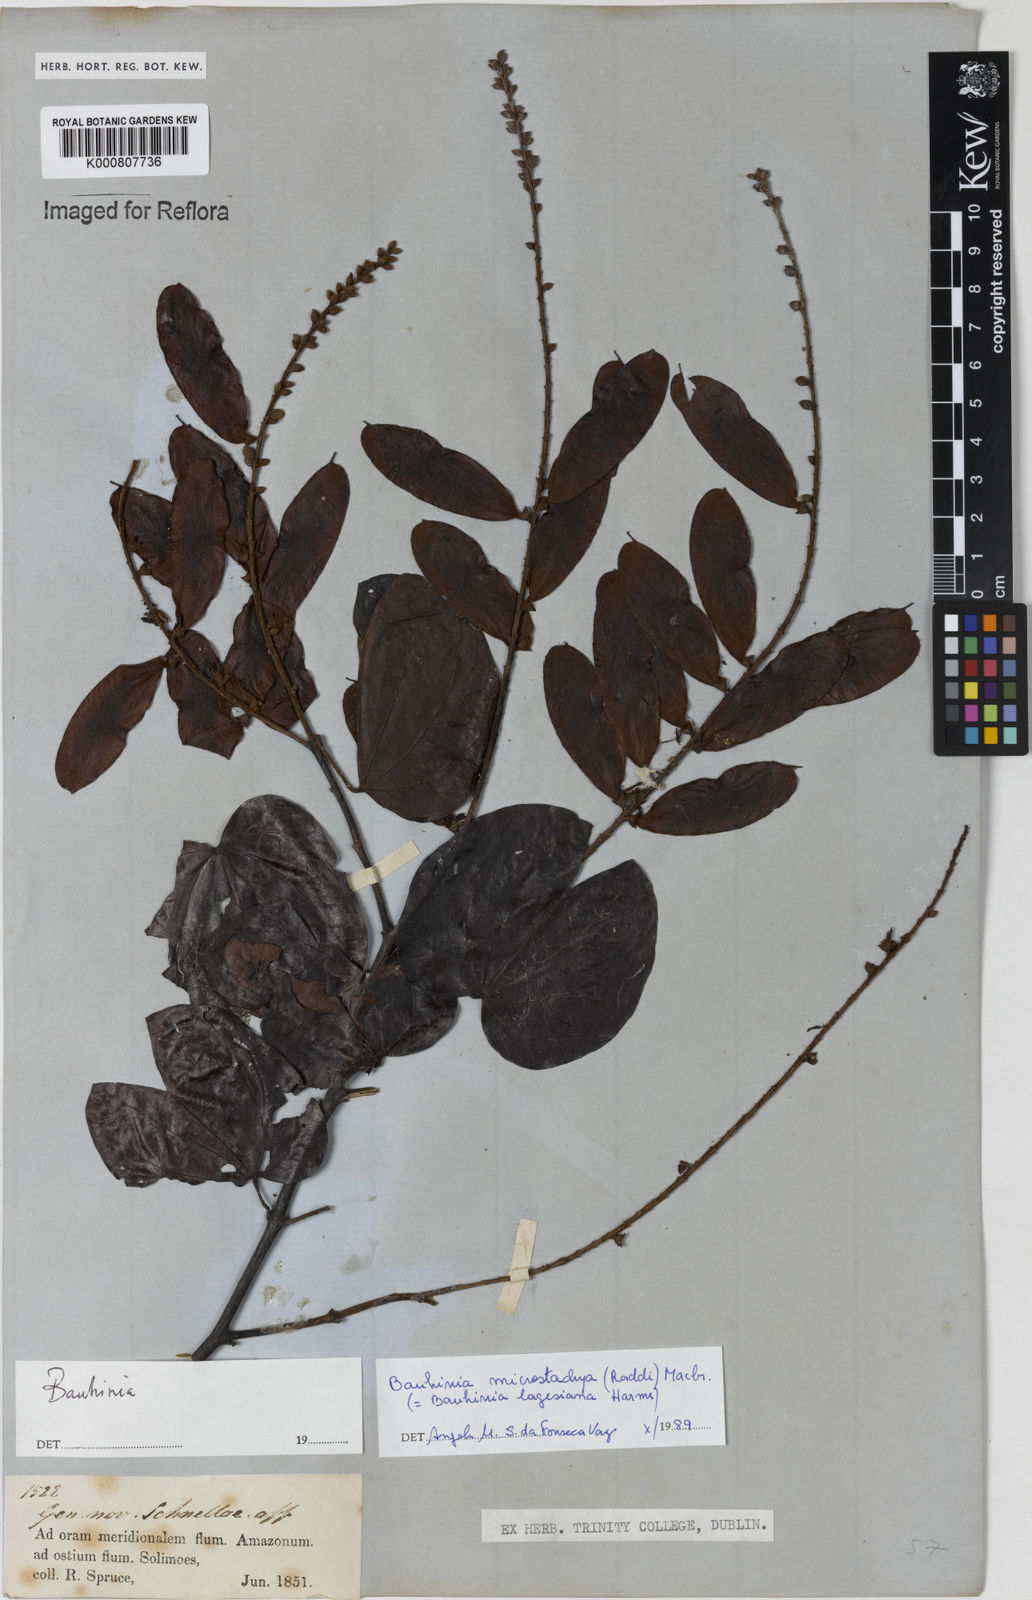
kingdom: Plantae
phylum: Tracheophyta
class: Magnoliopsida
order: Fabales
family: Fabaceae
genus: Schnella
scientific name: Schnella microstachya
